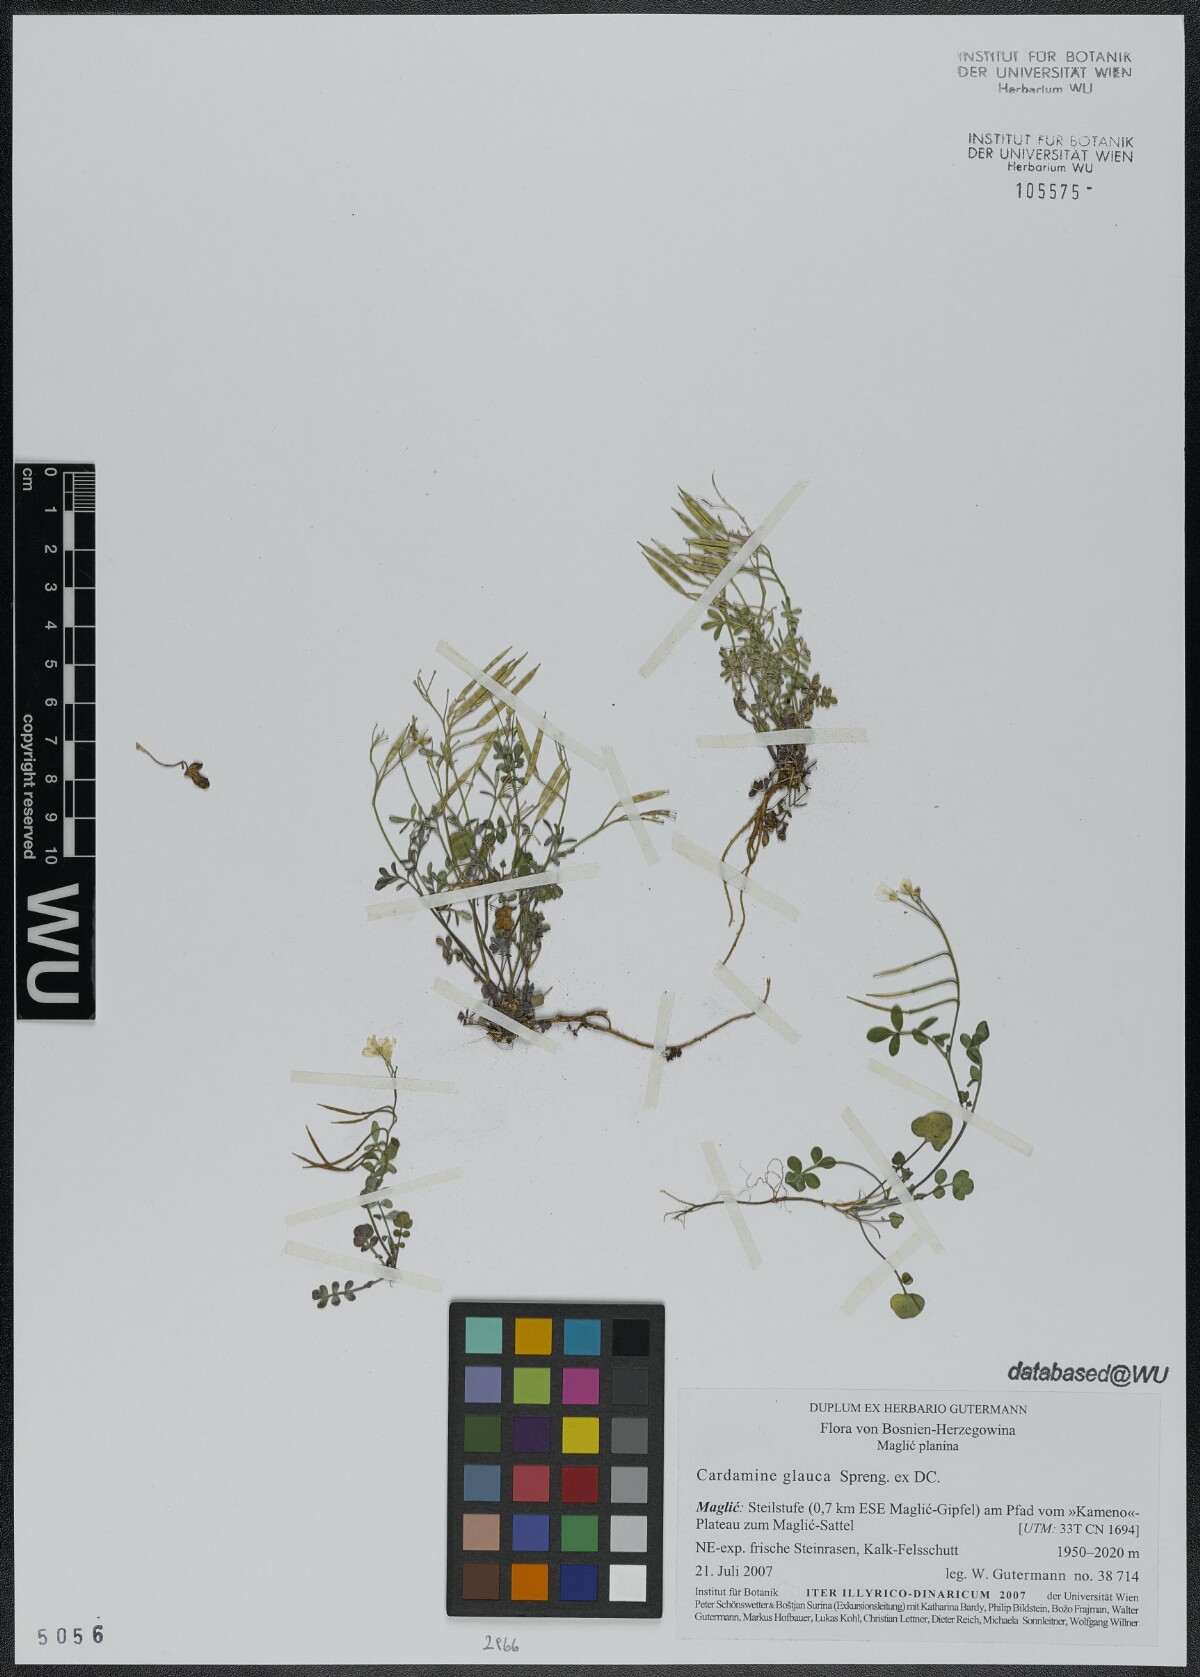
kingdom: Plantae
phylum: Tracheophyta
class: Magnoliopsida
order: Brassicales
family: Brassicaceae
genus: Cardamine
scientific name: Cardamine glauca
